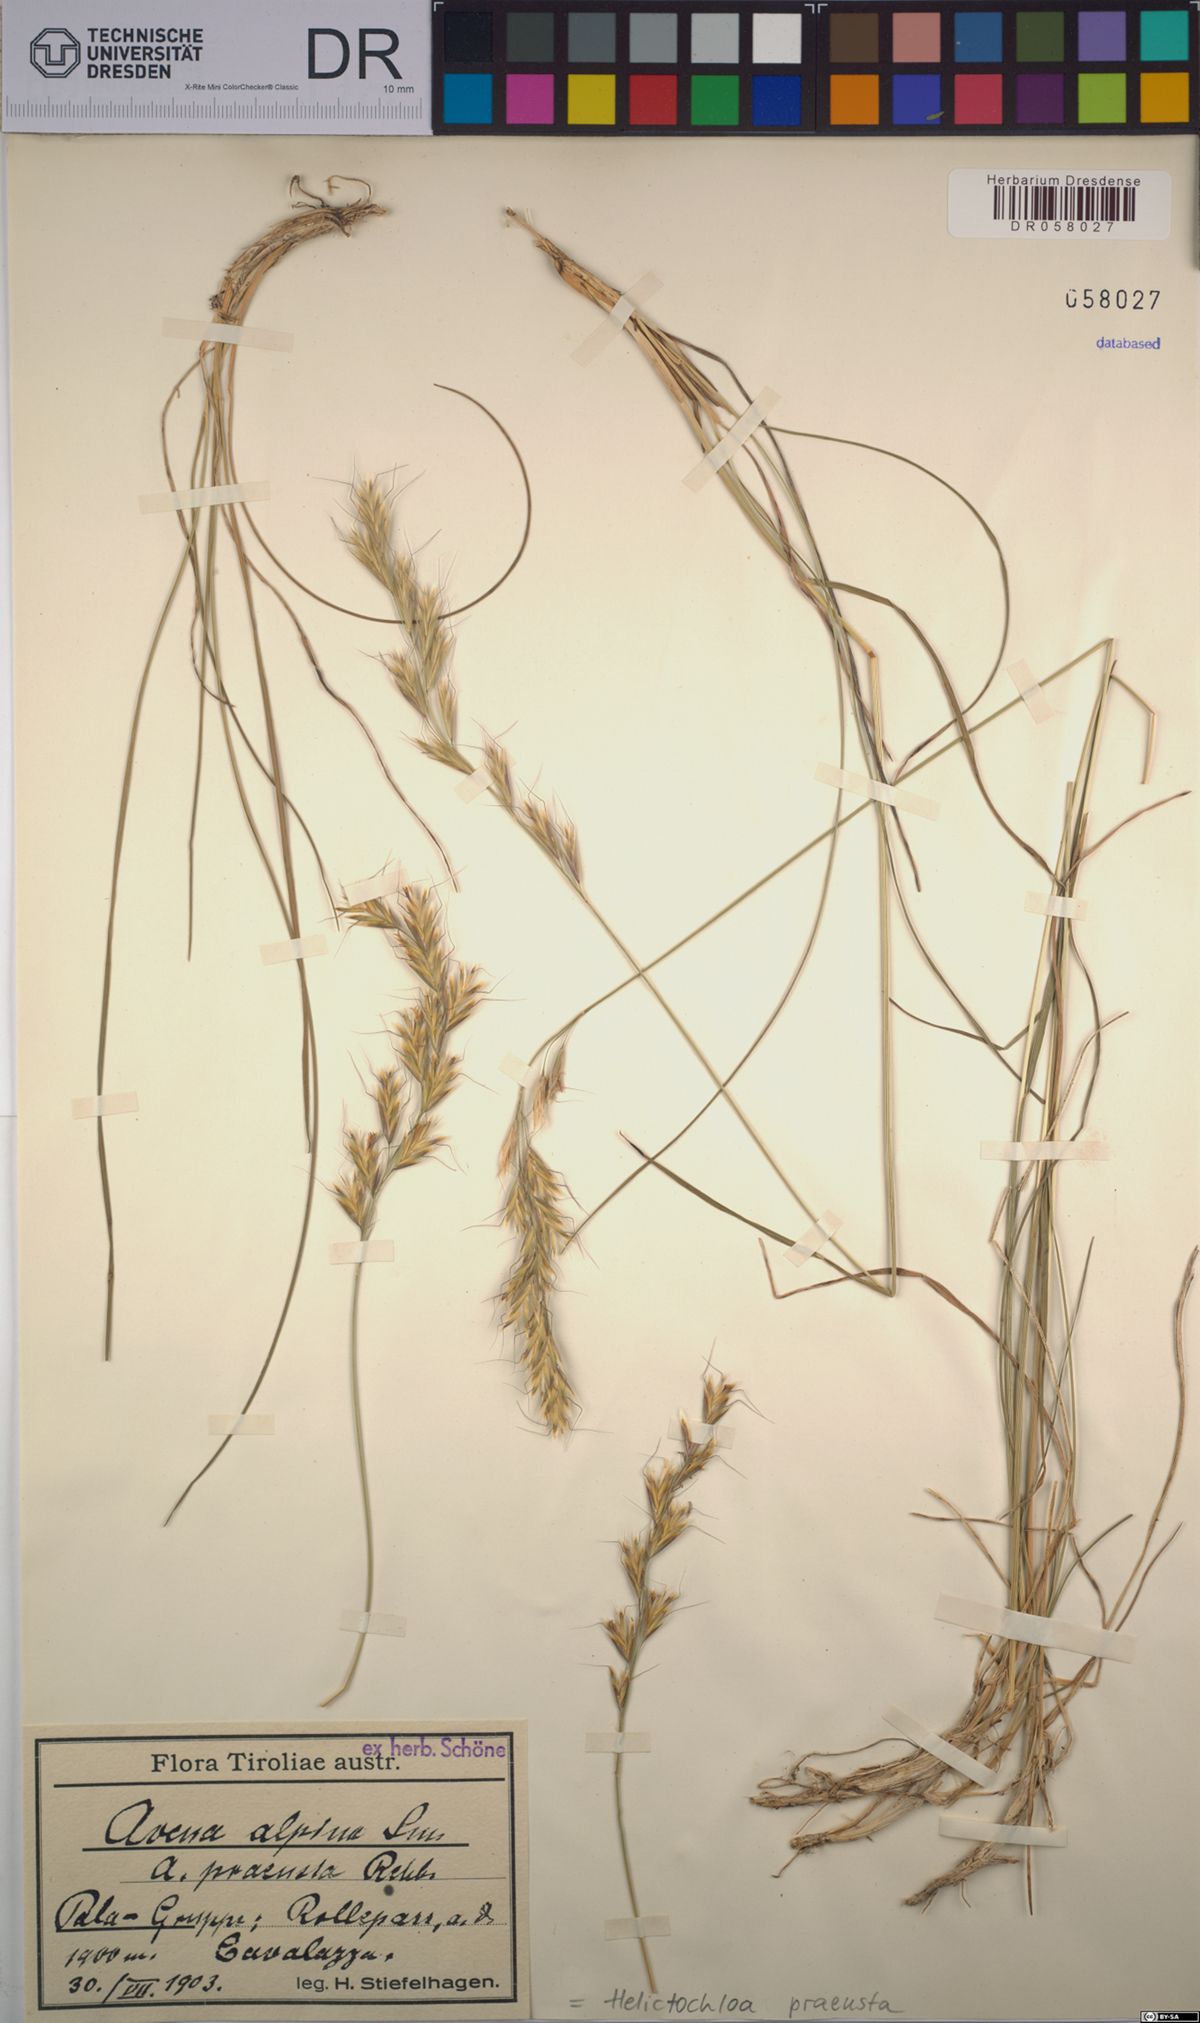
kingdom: Plantae
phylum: Tracheophyta
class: Liliopsida
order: Poales
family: Poaceae
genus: Helictochloa
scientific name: Helictochloa praeusta
